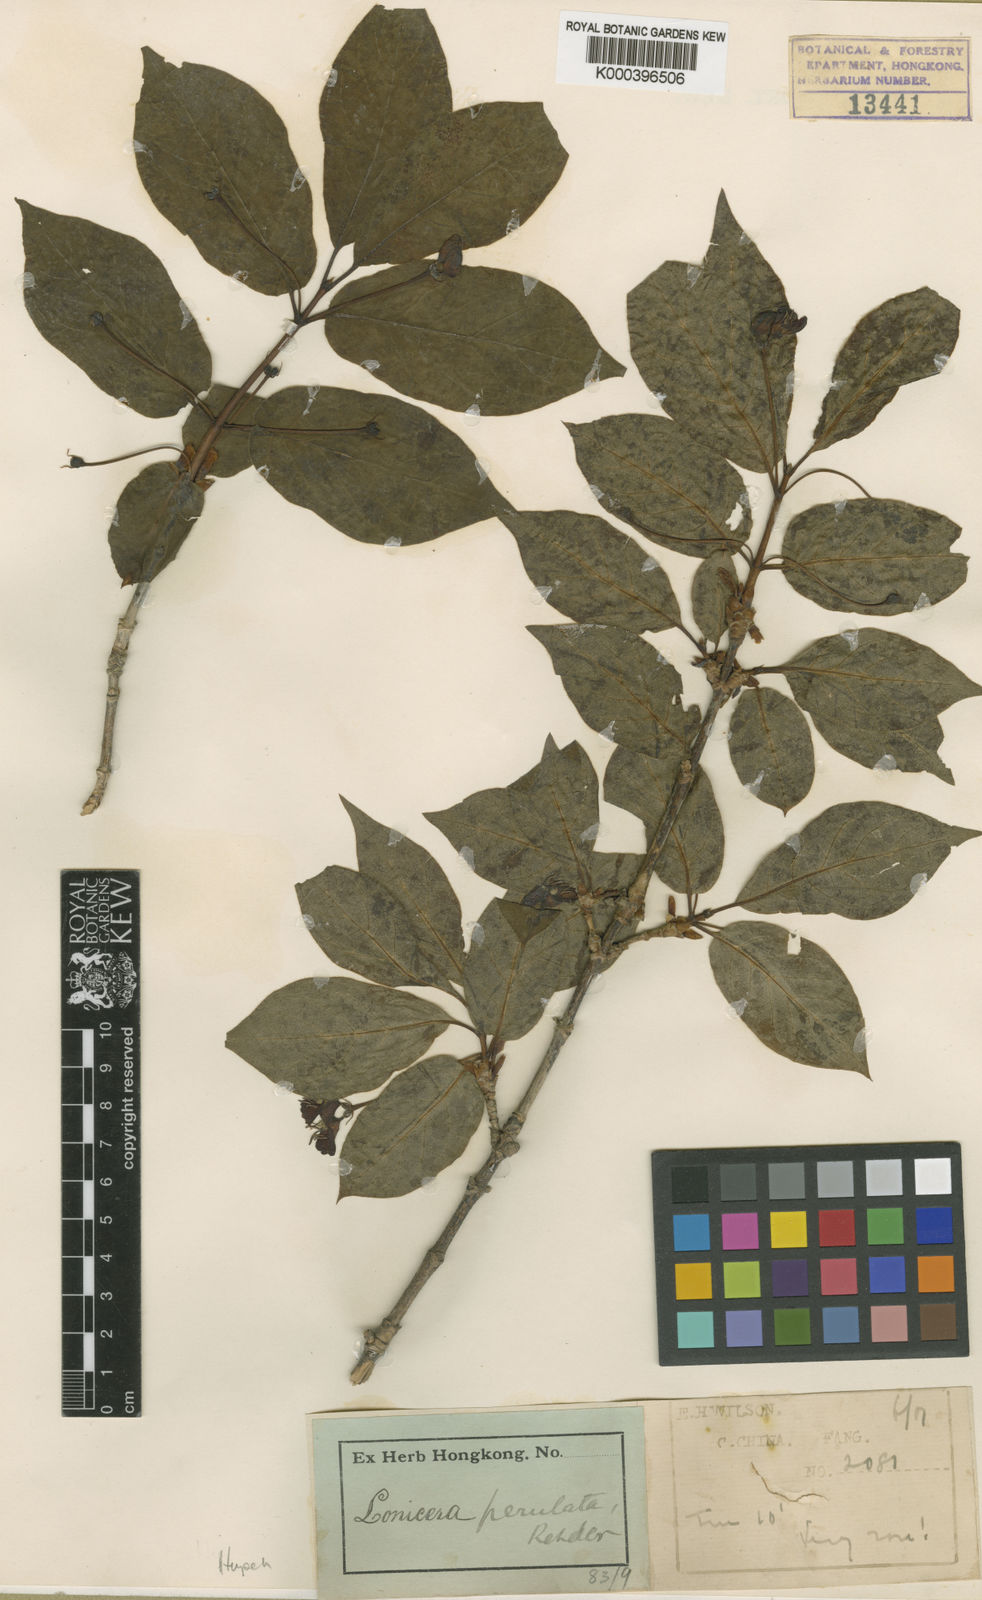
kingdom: Plantae
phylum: Tracheophyta
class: Magnoliopsida
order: Dipsacales
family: Caprifoliaceae
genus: Lonicera
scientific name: Lonicera webbiana
